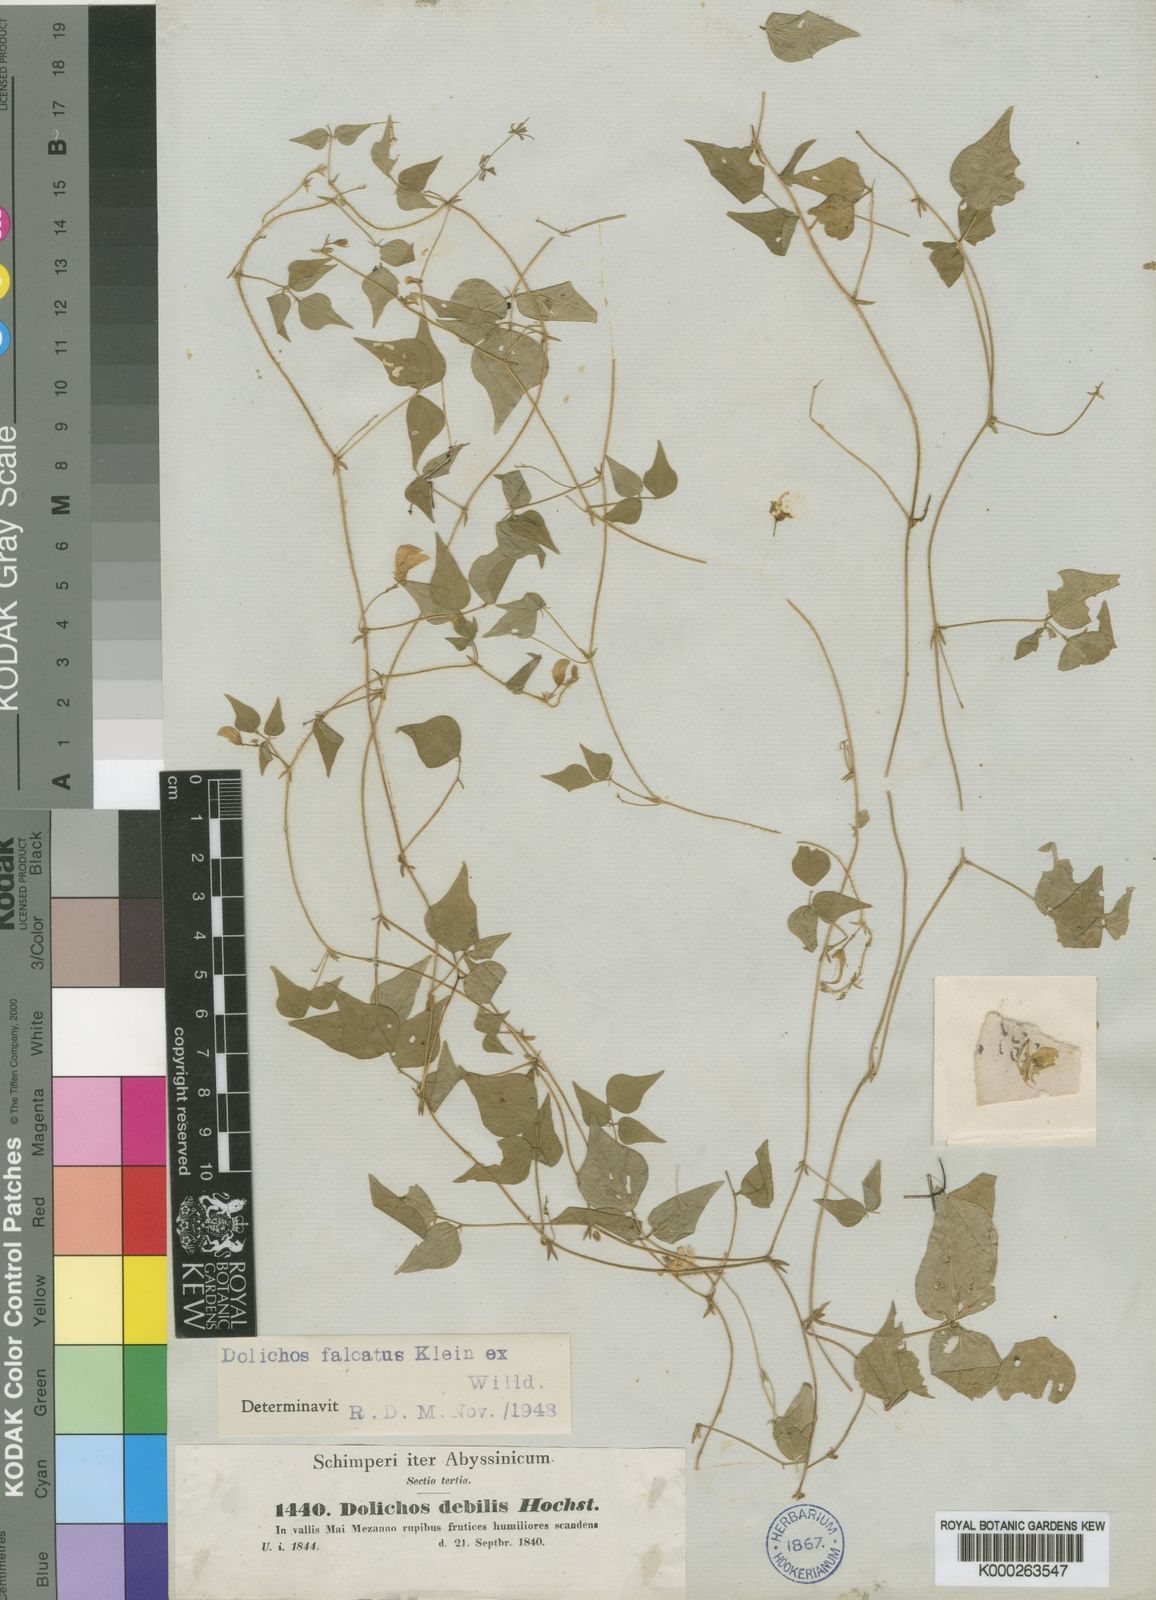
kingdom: Plantae
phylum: Tracheophyta
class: Magnoliopsida
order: Fabales
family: Fabaceae
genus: Dolichos
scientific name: Dolichos trilobus
